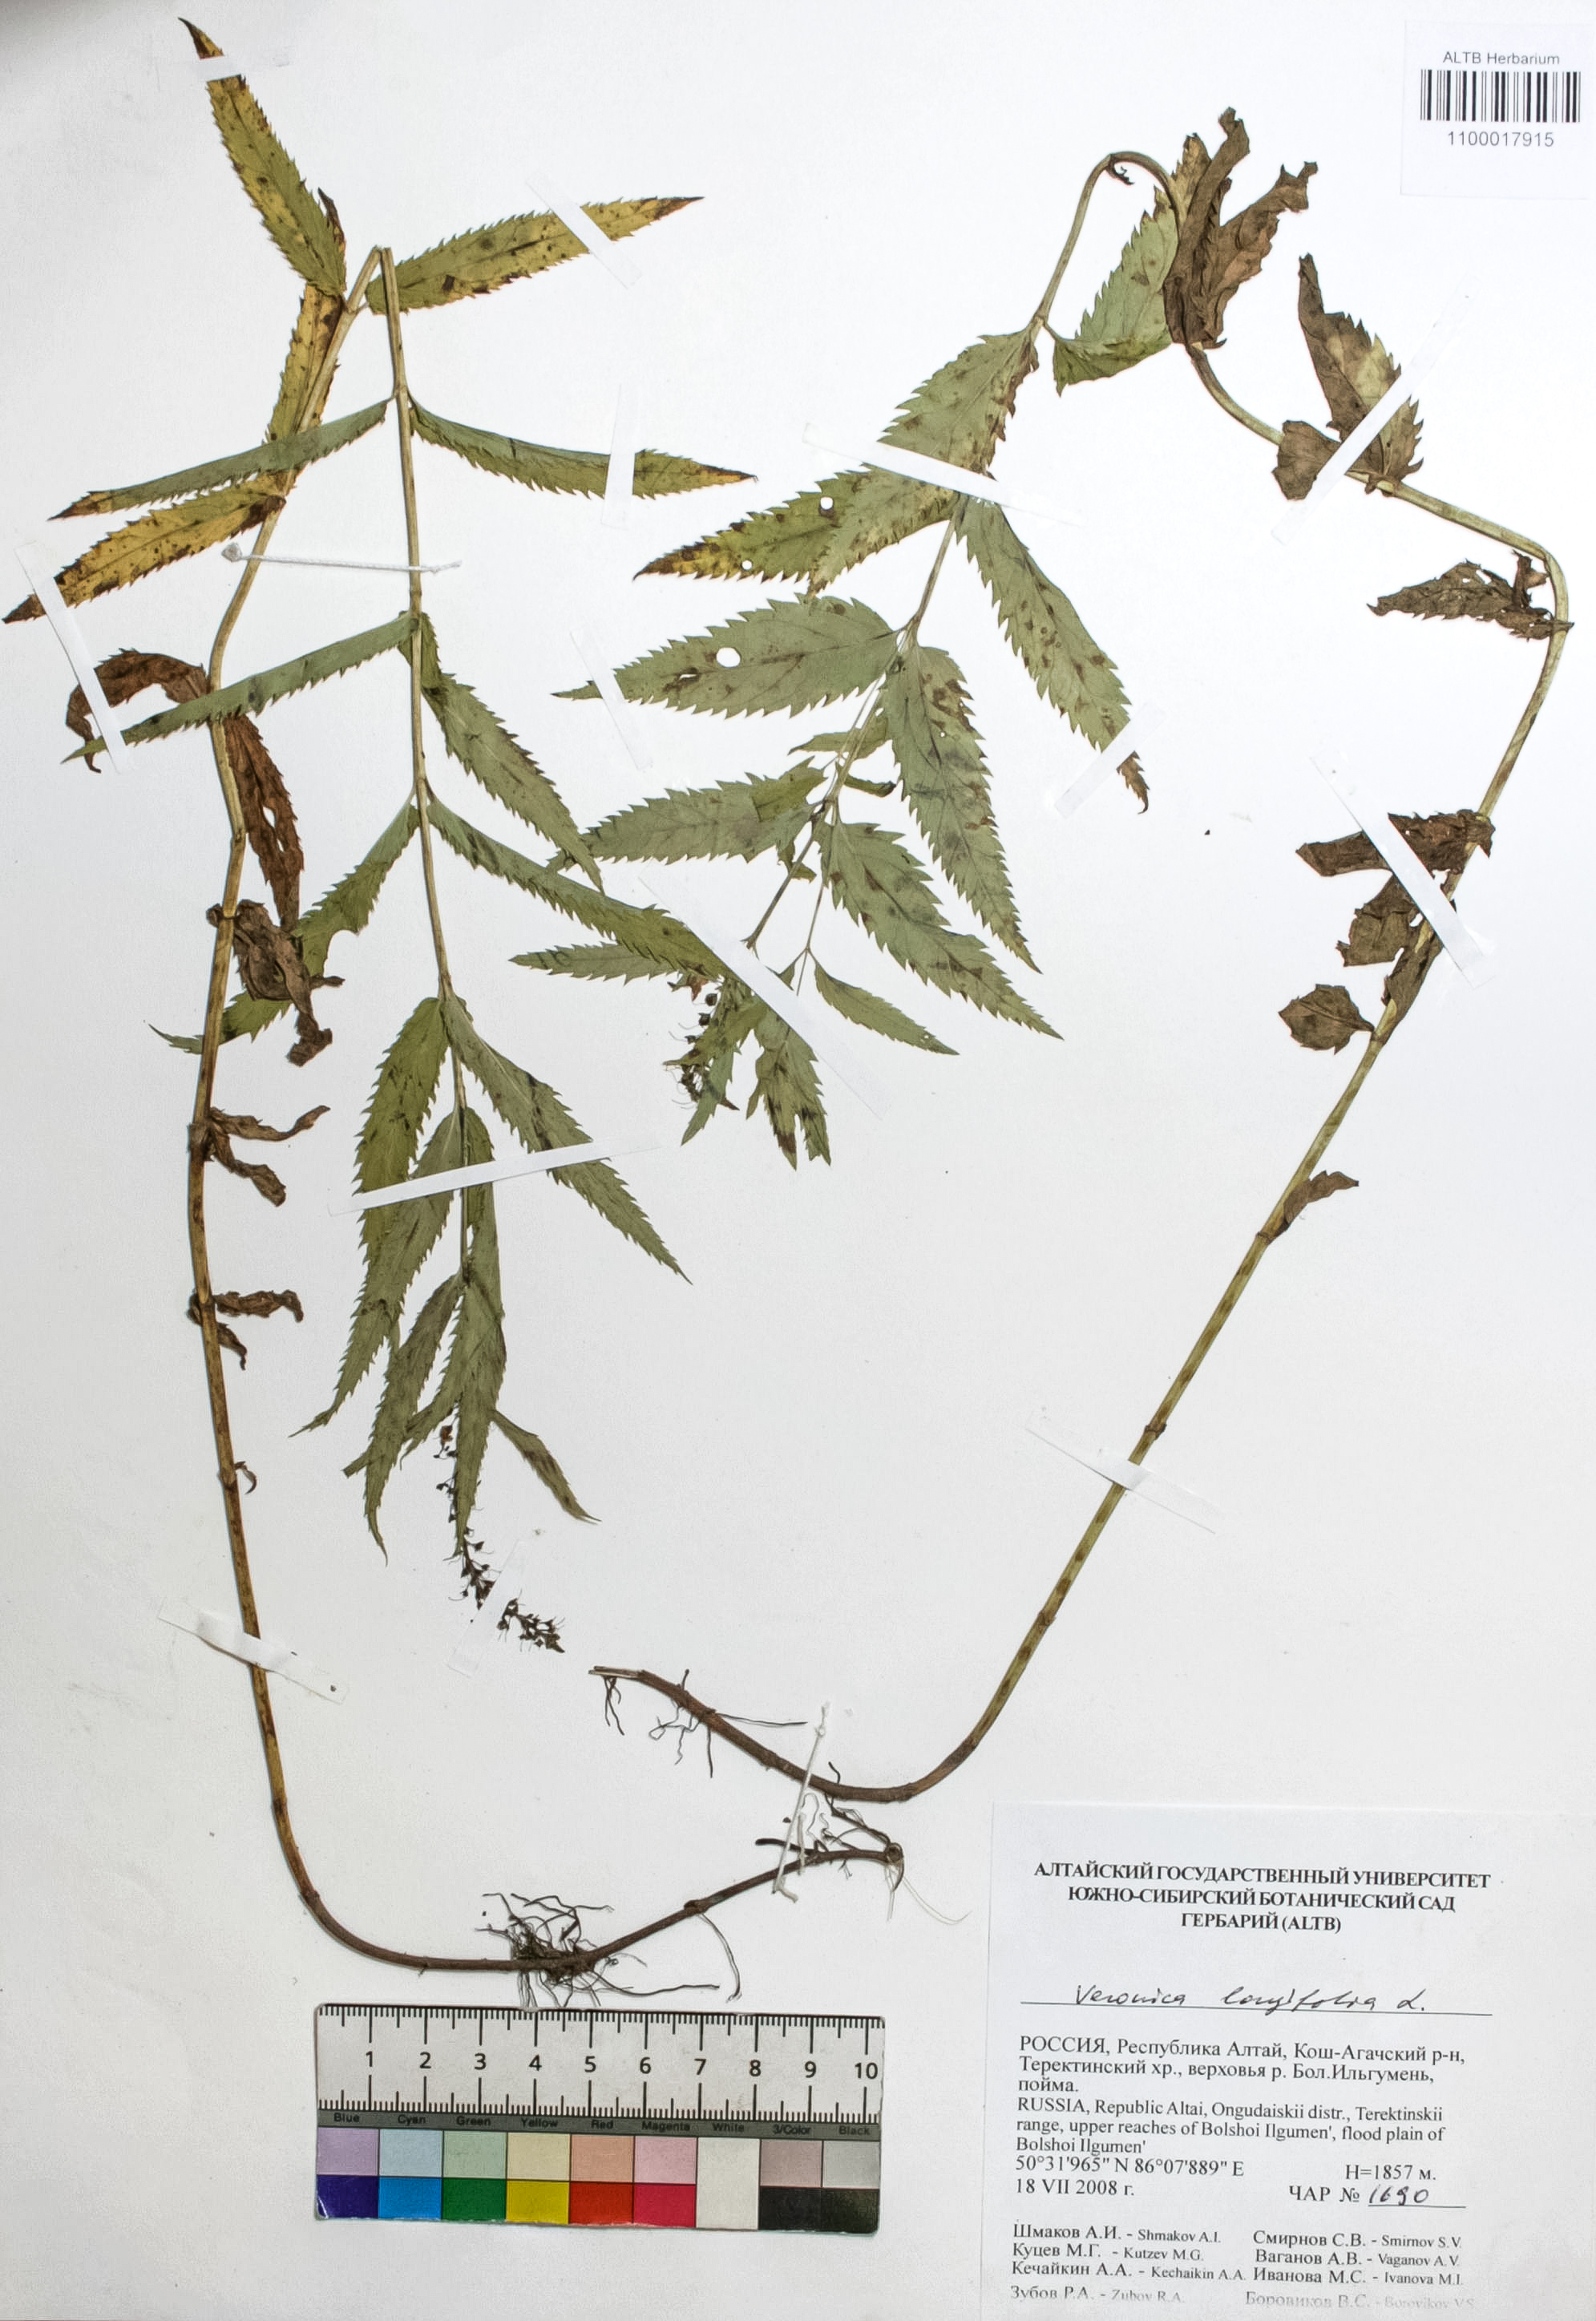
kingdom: Plantae
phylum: Tracheophyta
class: Magnoliopsida
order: Lamiales
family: Plantaginaceae
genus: Veronica
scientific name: Veronica longifolia
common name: Garden speedwell
